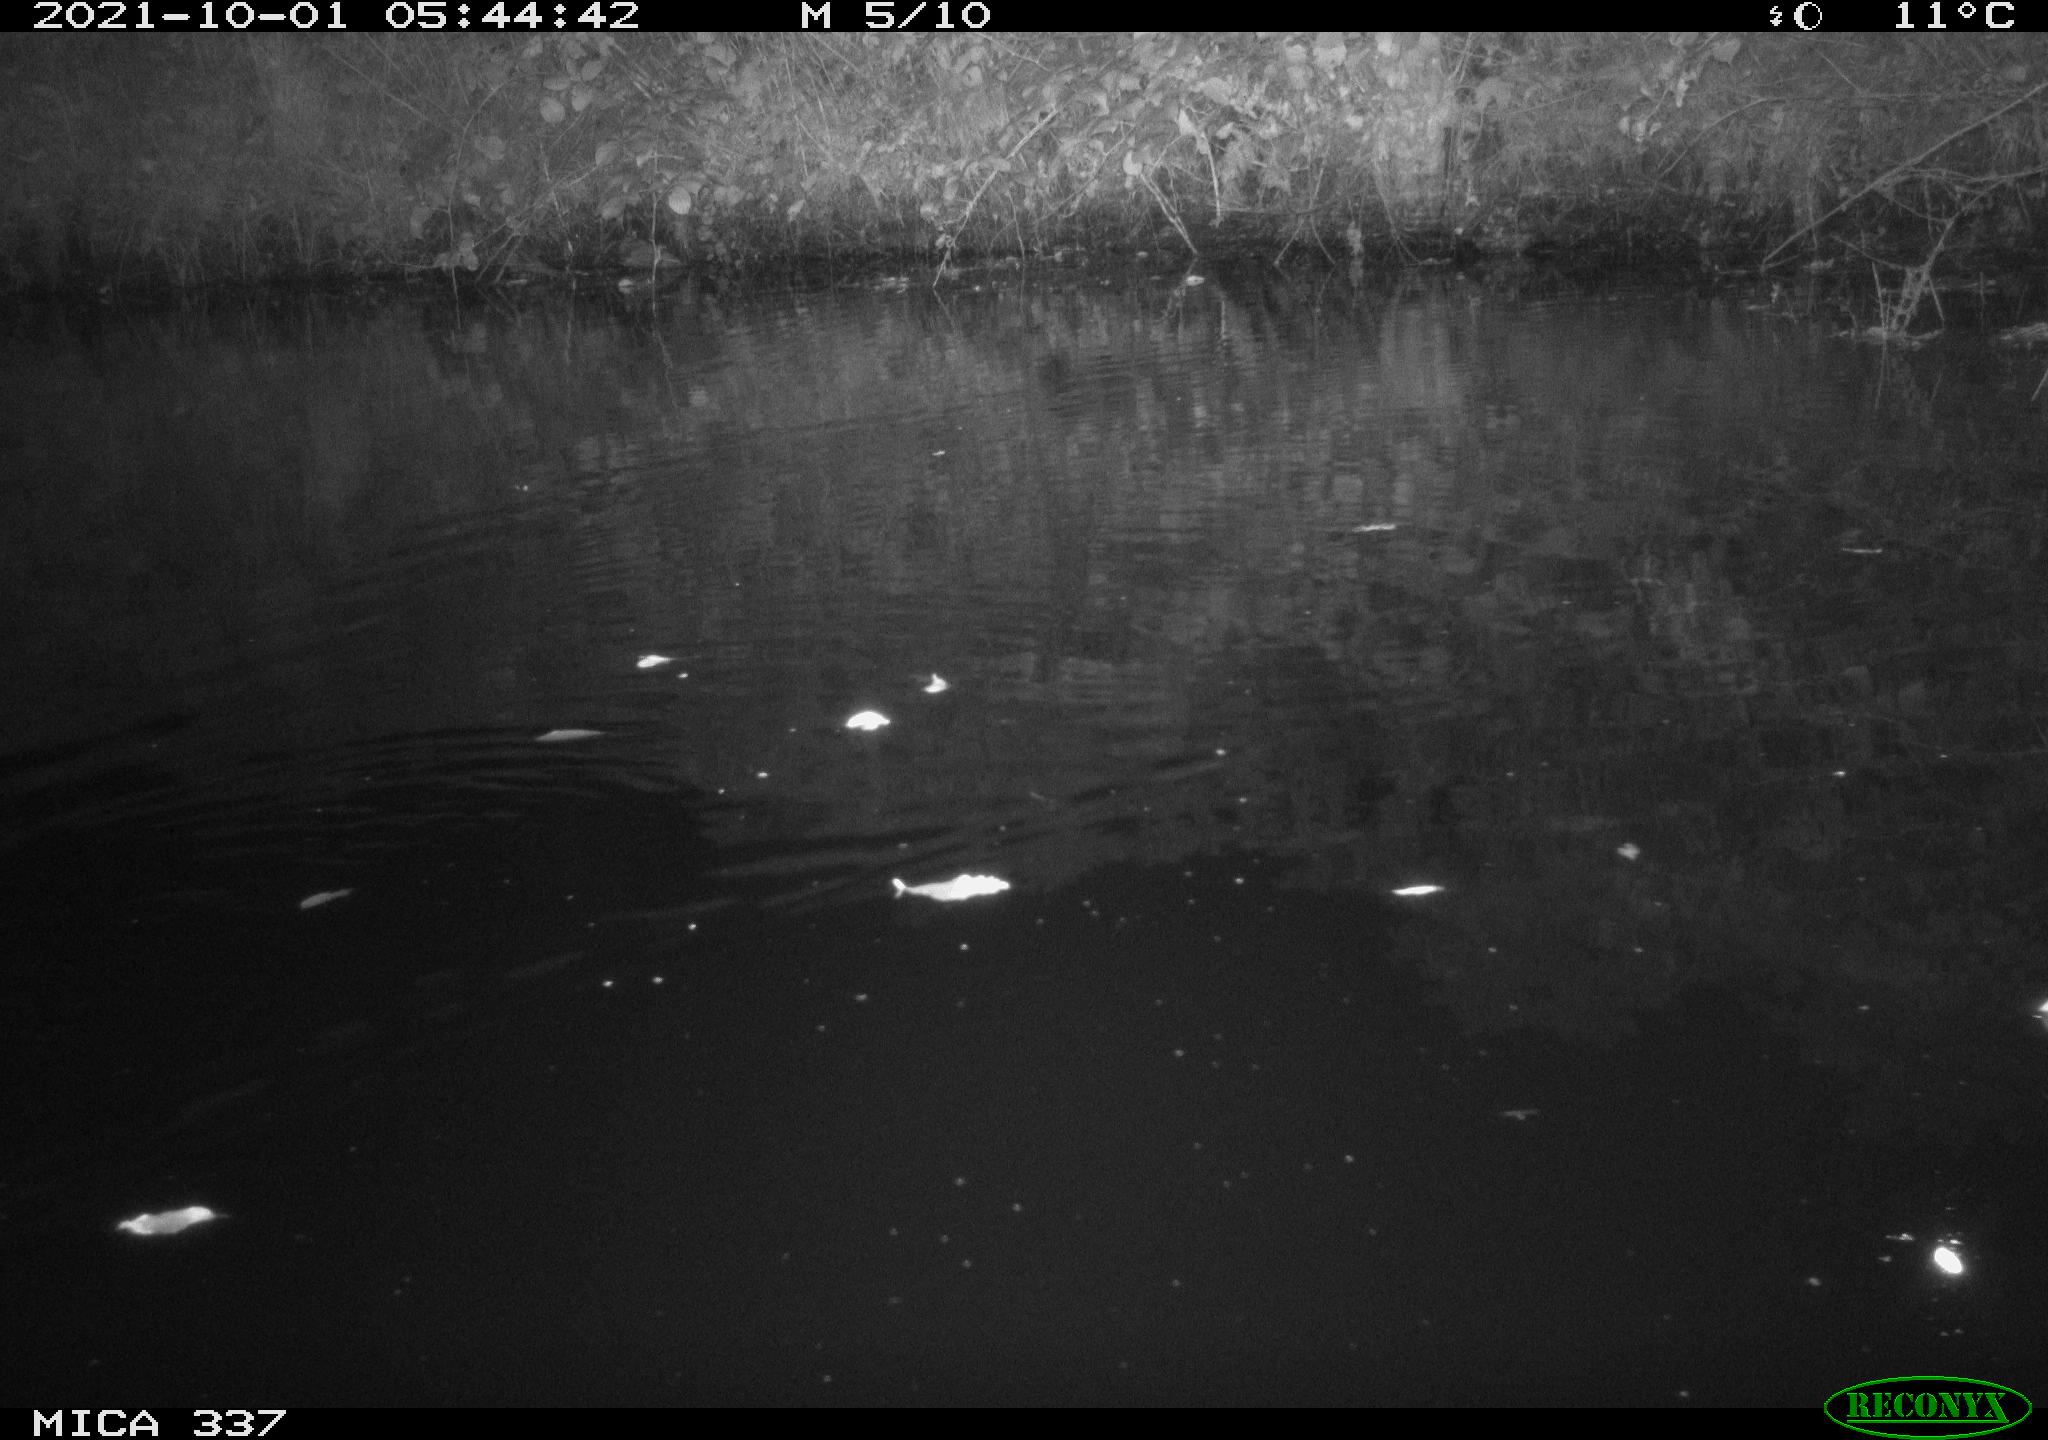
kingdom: Animalia
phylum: Chordata
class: Mammalia
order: Rodentia
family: Muridae
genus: Rattus
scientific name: Rattus norvegicus
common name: Brown rat
